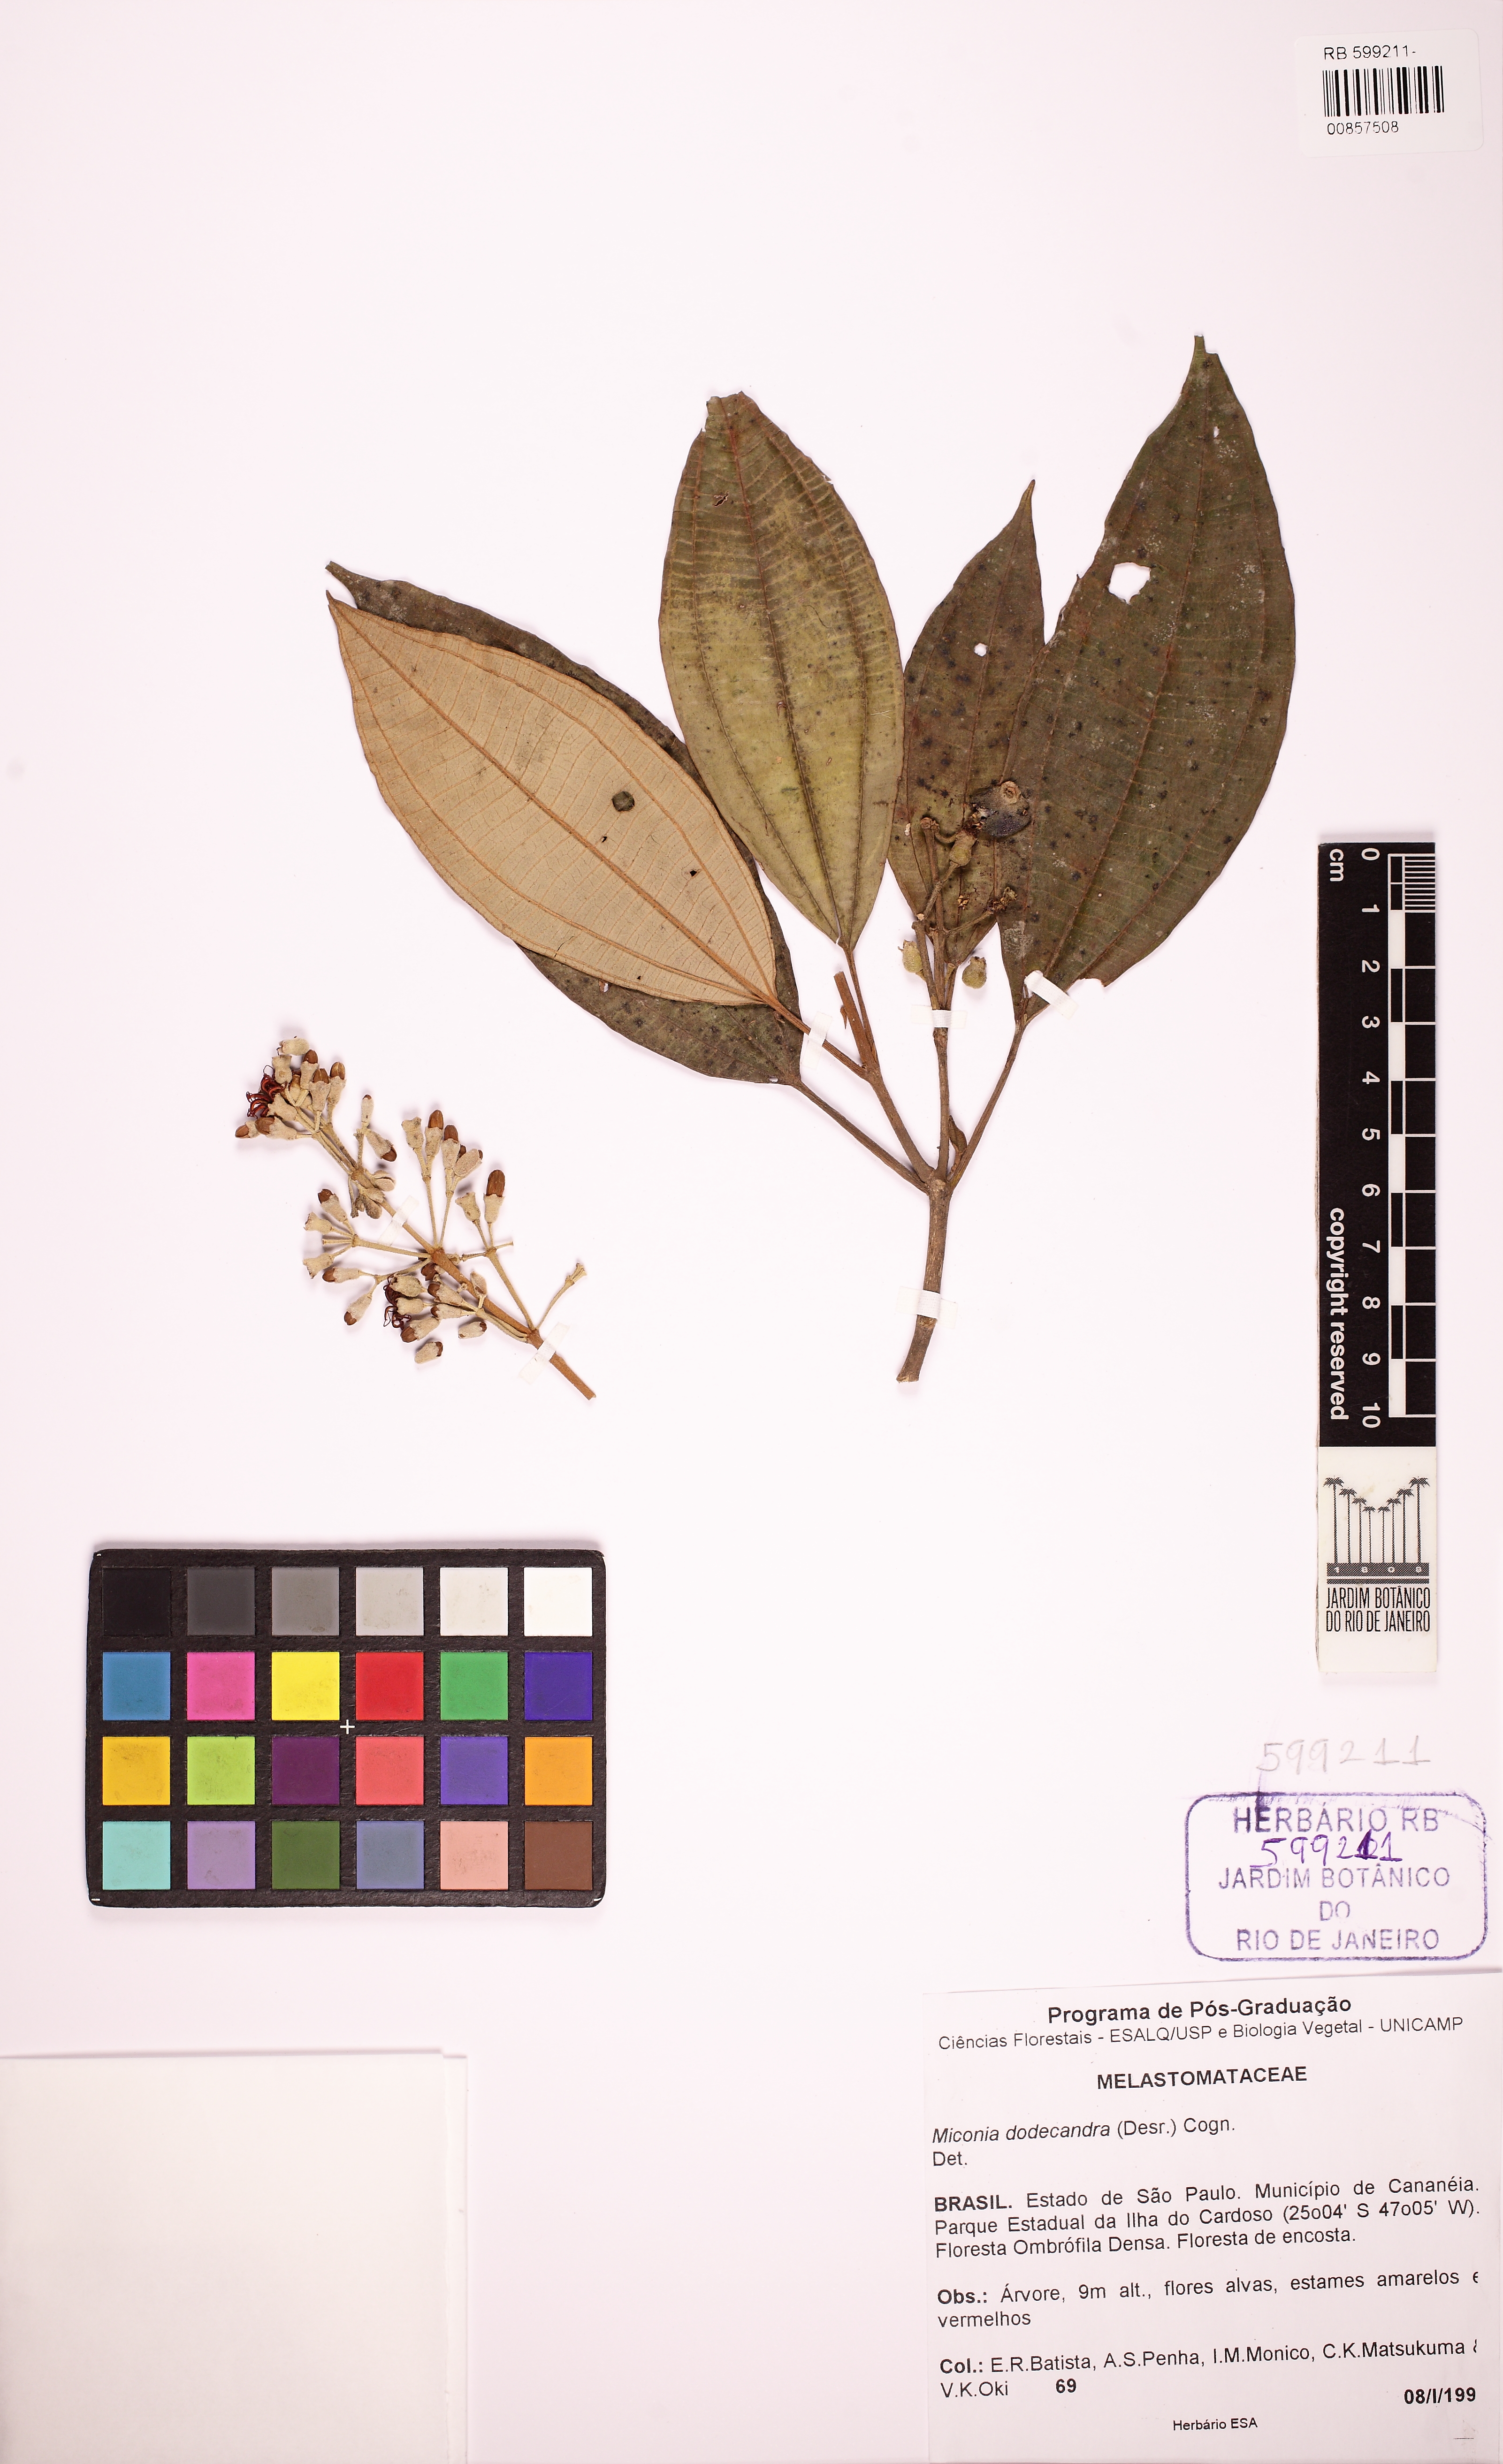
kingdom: Plantae
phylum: Tracheophyta
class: Magnoliopsida
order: Myrtales
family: Melastomataceae
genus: Miconia
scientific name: Miconia dodecandra
